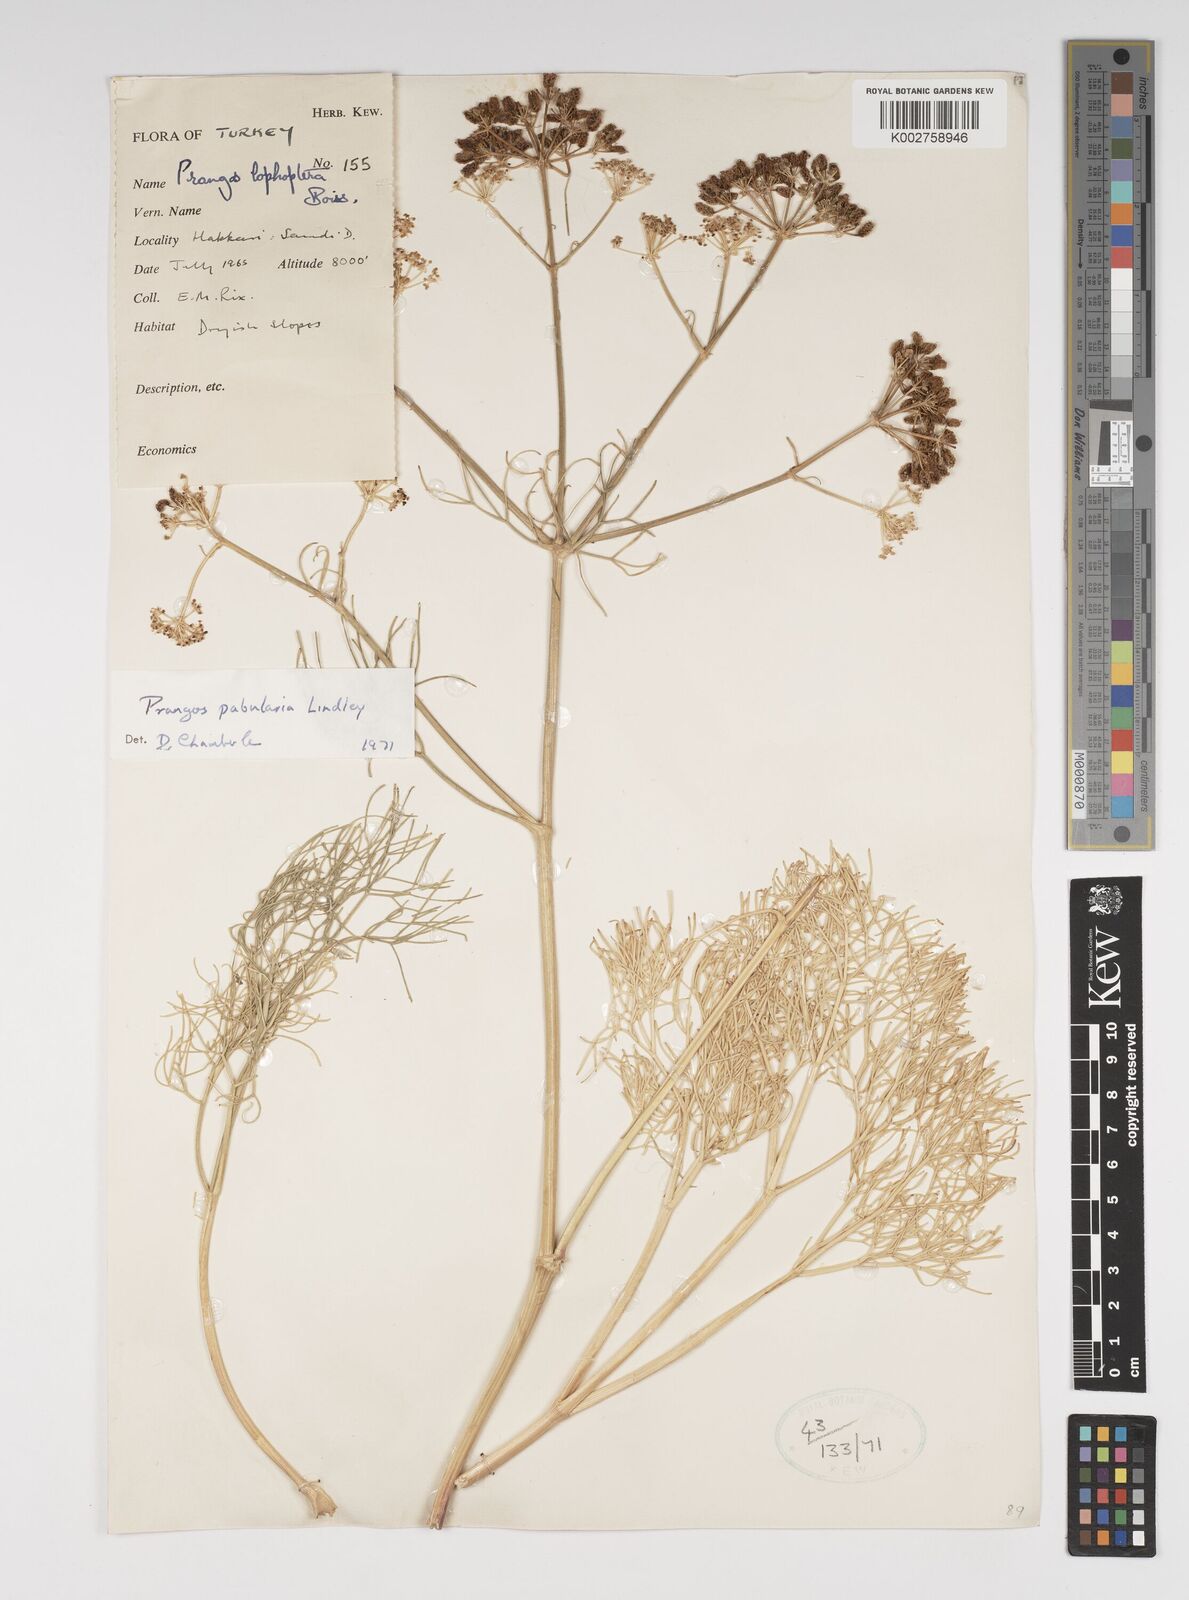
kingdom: Plantae
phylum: Tracheophyta
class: Magnoliopsida
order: Apiales
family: Apiaceae
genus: Prangos
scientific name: Prangos pabularia
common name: Yugan
